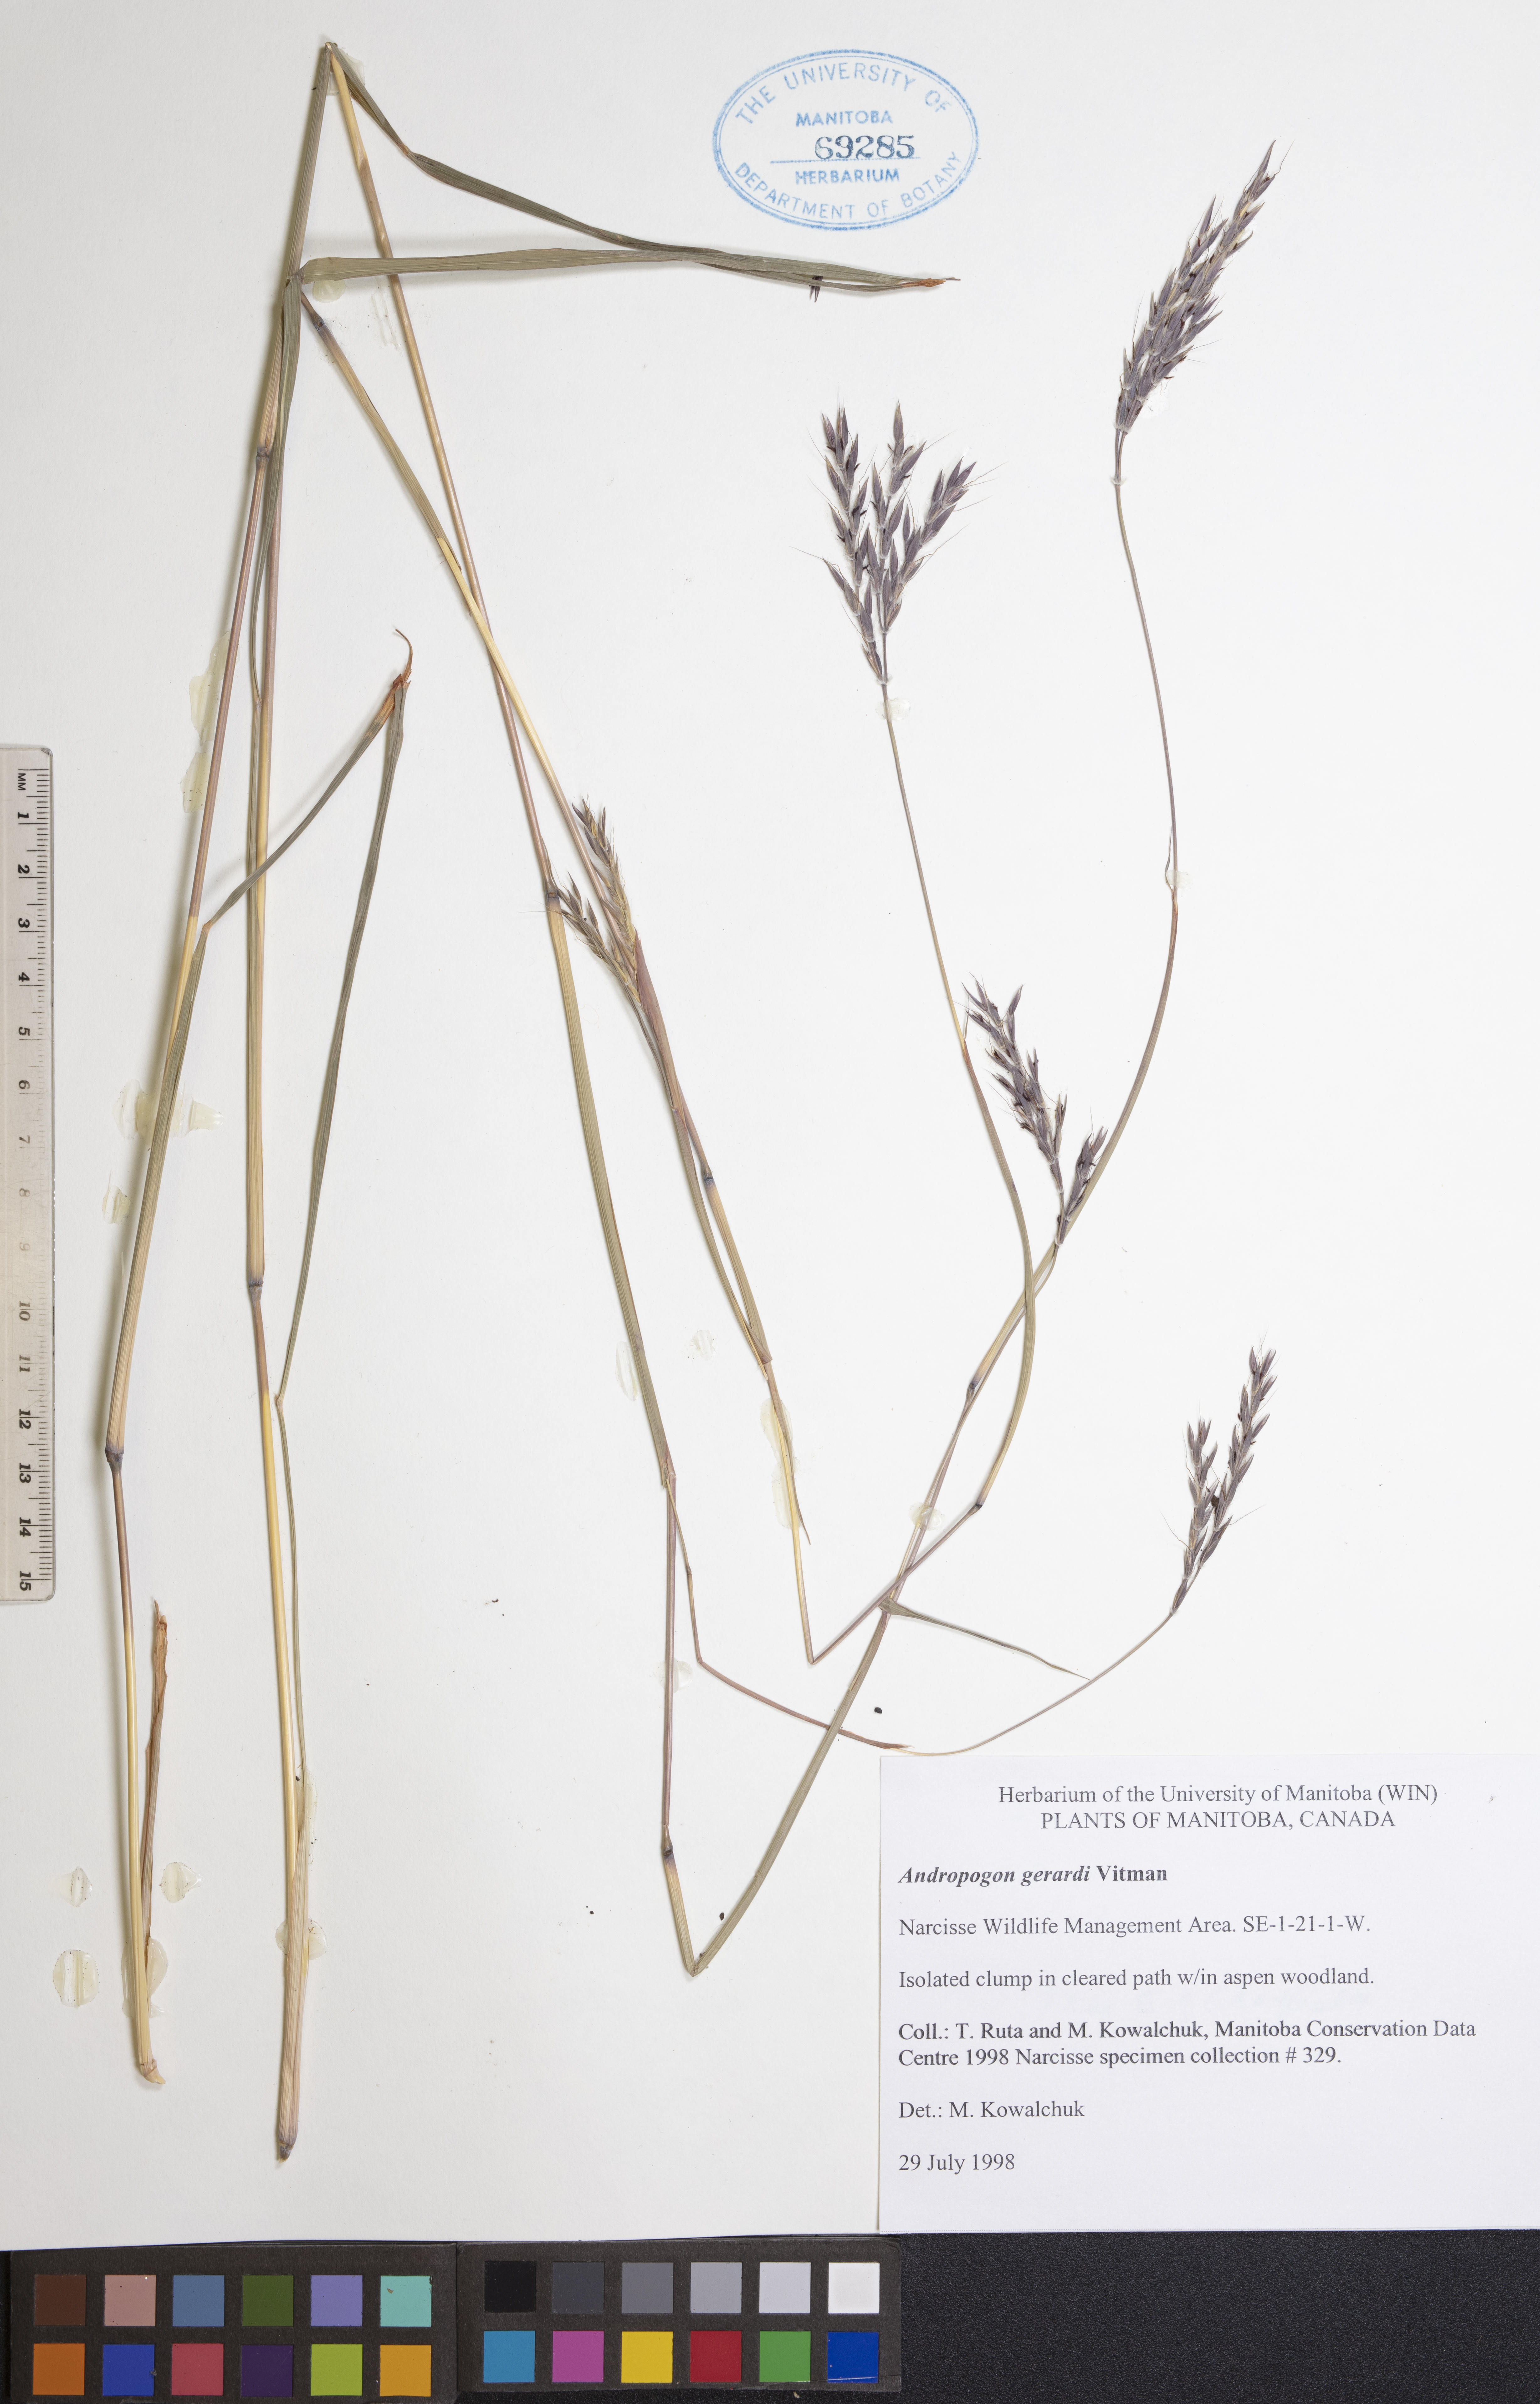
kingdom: Plantae
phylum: Tracheophyta
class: Liliopsida
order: Poales
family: Poaceae
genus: Andropogon
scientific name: Andropogon gerardi
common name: Big bluestem
